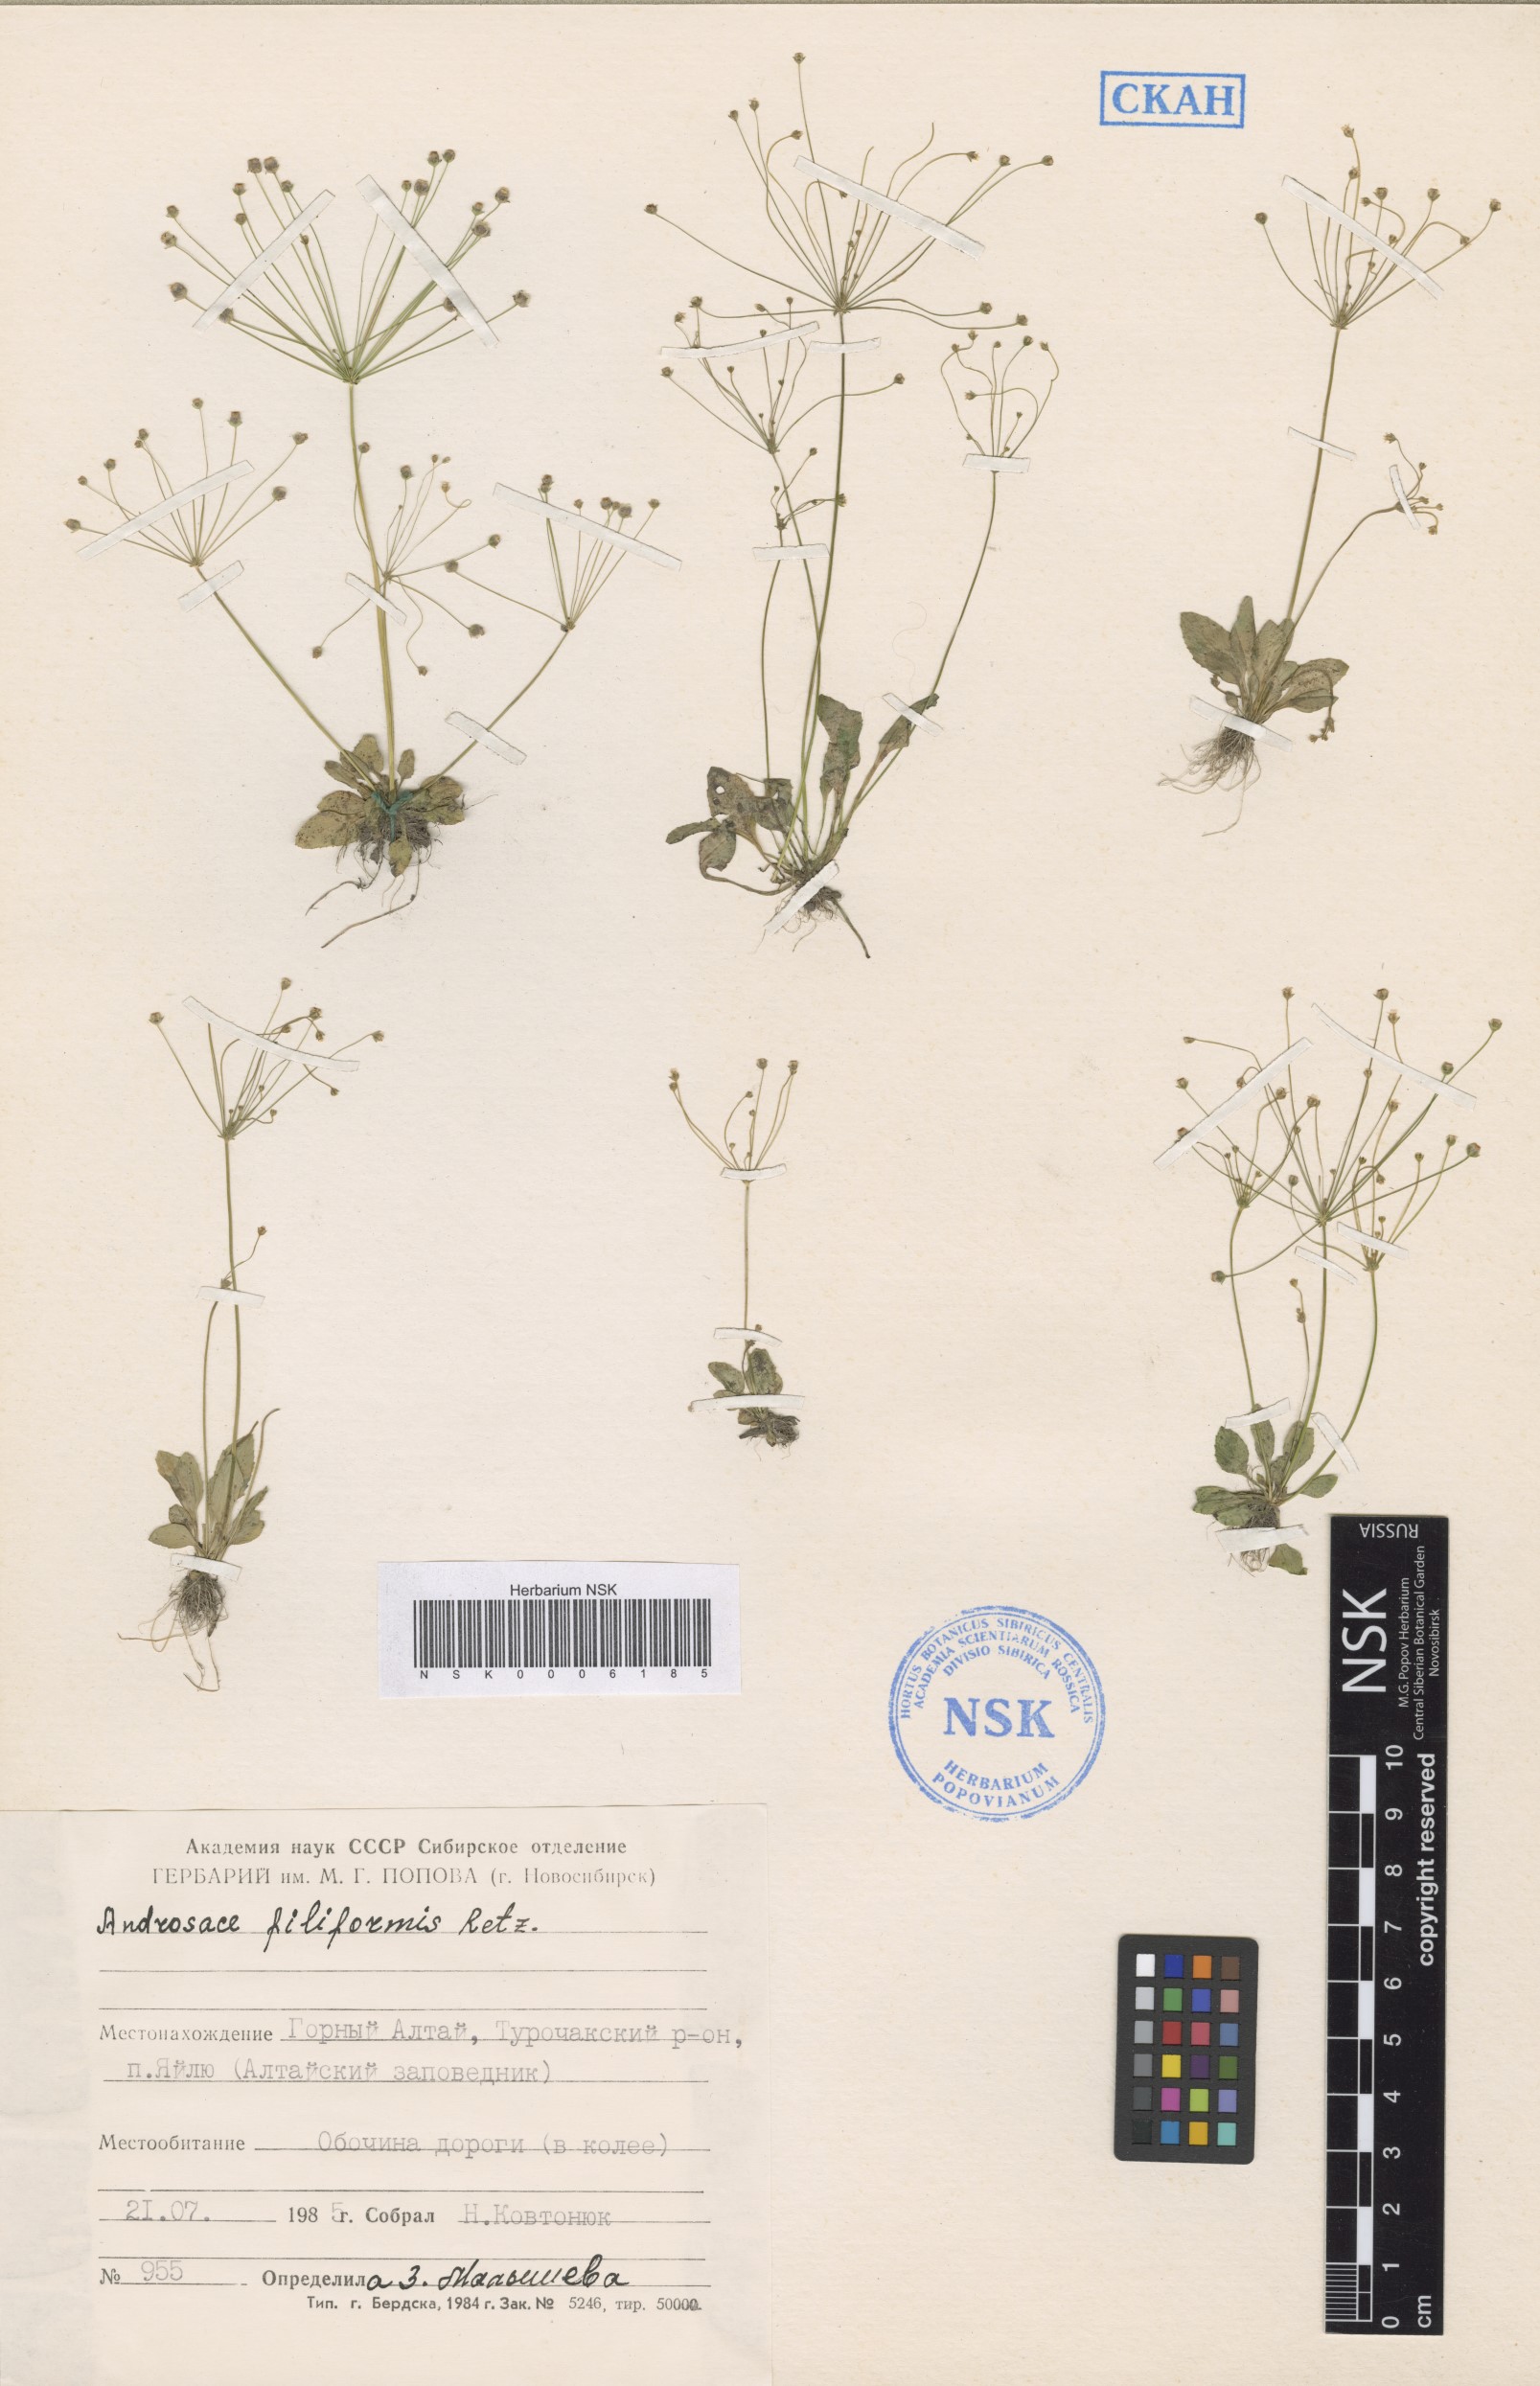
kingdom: Plantae
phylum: Tracheophyta
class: Magnoliopsida
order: Ericales
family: Primulaceae
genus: Androsace
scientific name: Androsace filiformis
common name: Filiform rock jasmine
